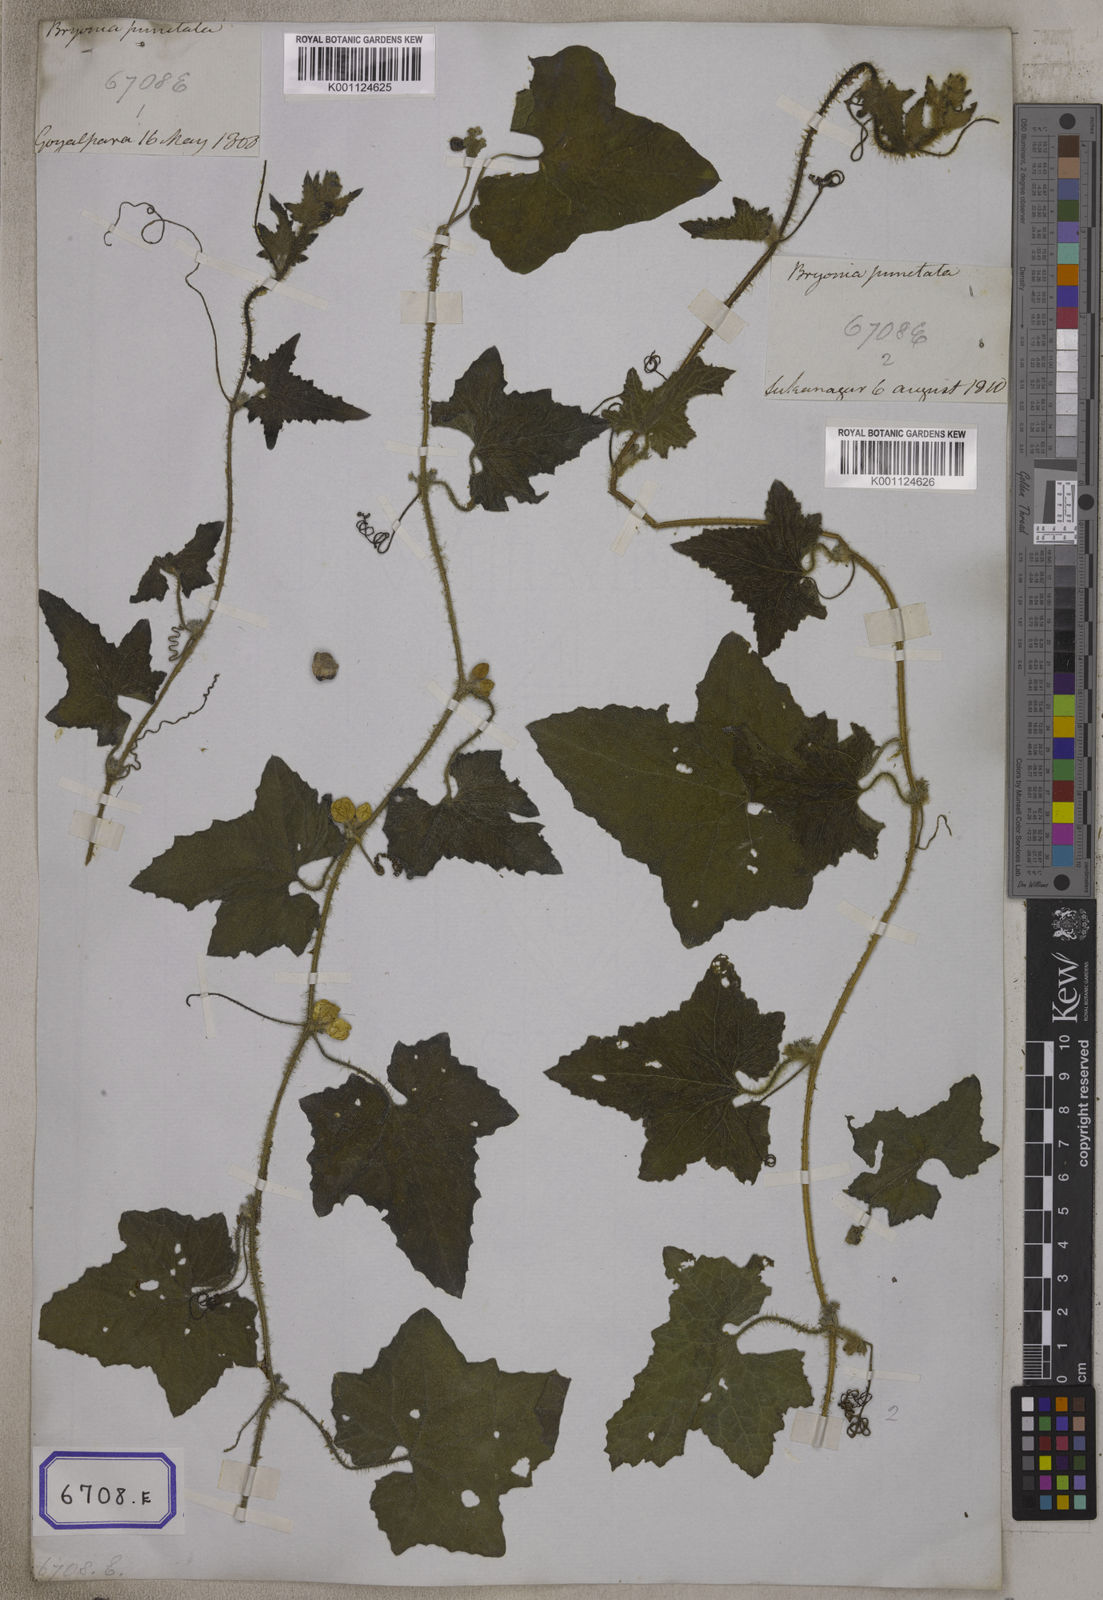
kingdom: Plantae
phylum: Tracheophyta
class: Magnoliopsida
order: Cucurbitales
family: Cucurbitaceae
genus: Bryonia
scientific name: Bryonia
